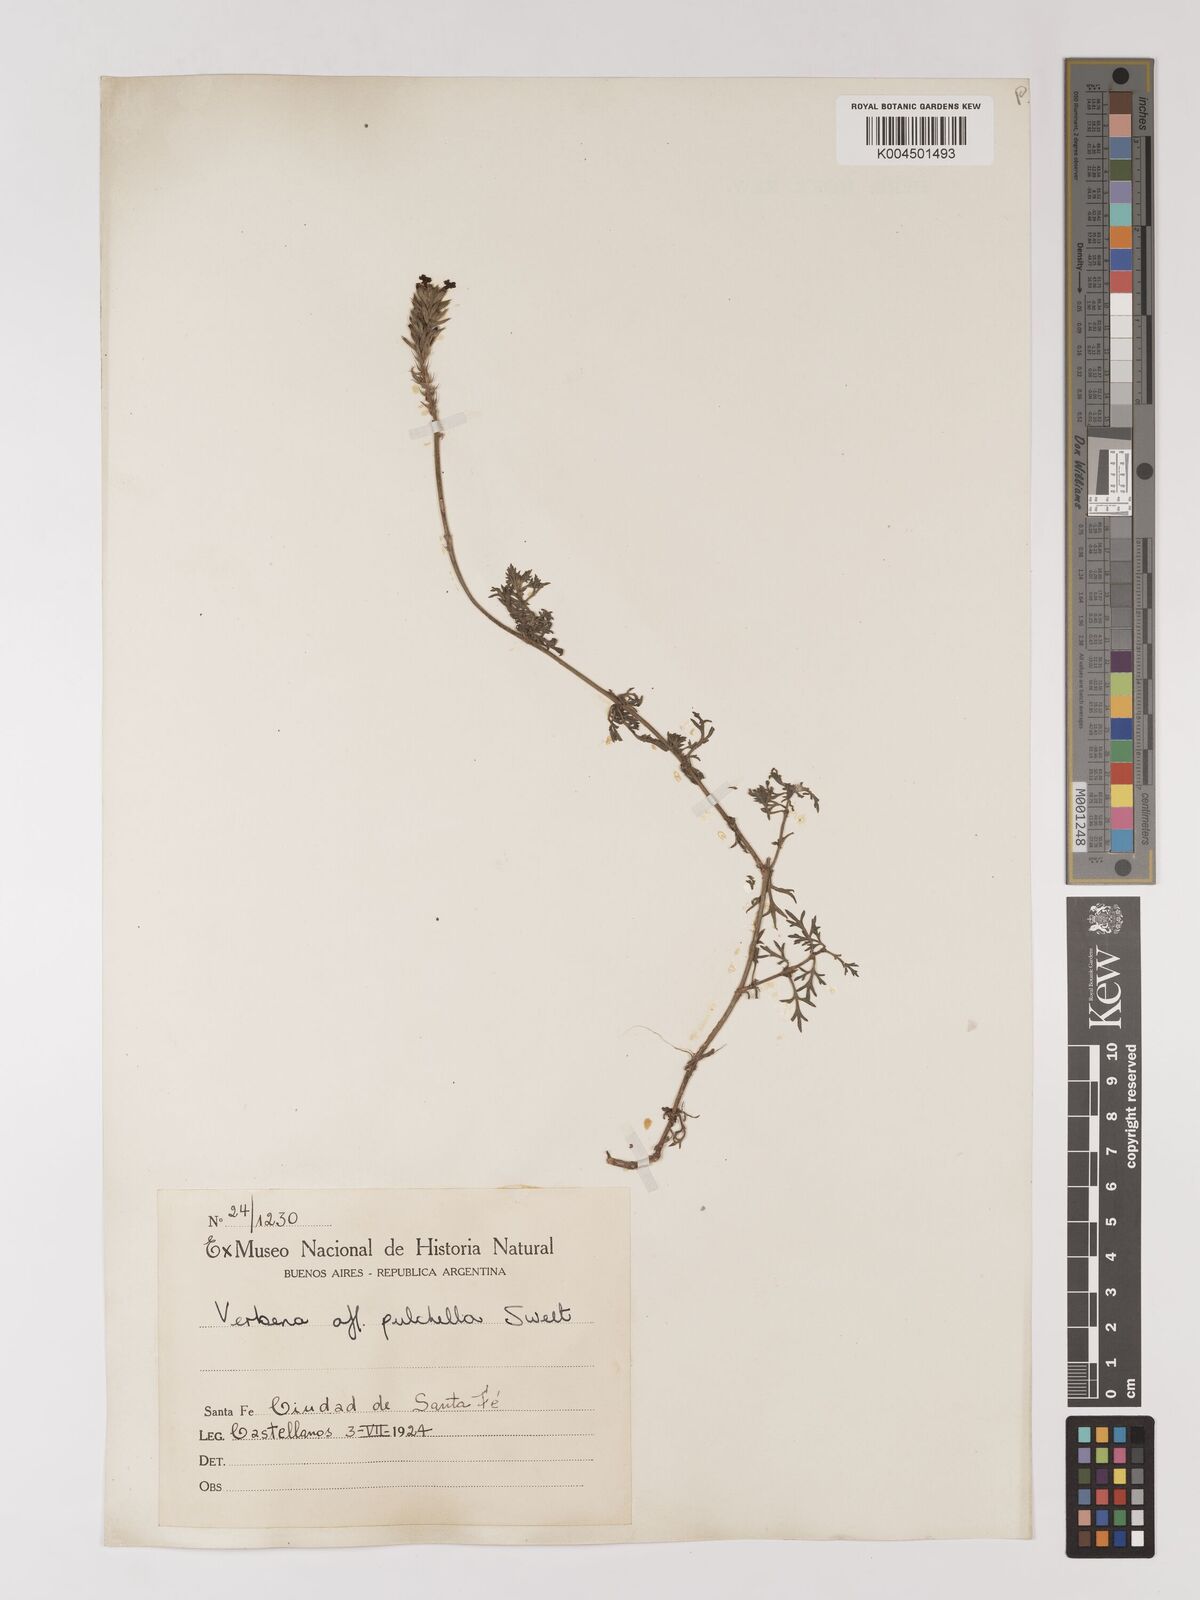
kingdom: Plantae
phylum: Tracheophyta
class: Magnoliopsida
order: Lamiales
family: Verbenaceae
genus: Verbena
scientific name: Verbena tenera
